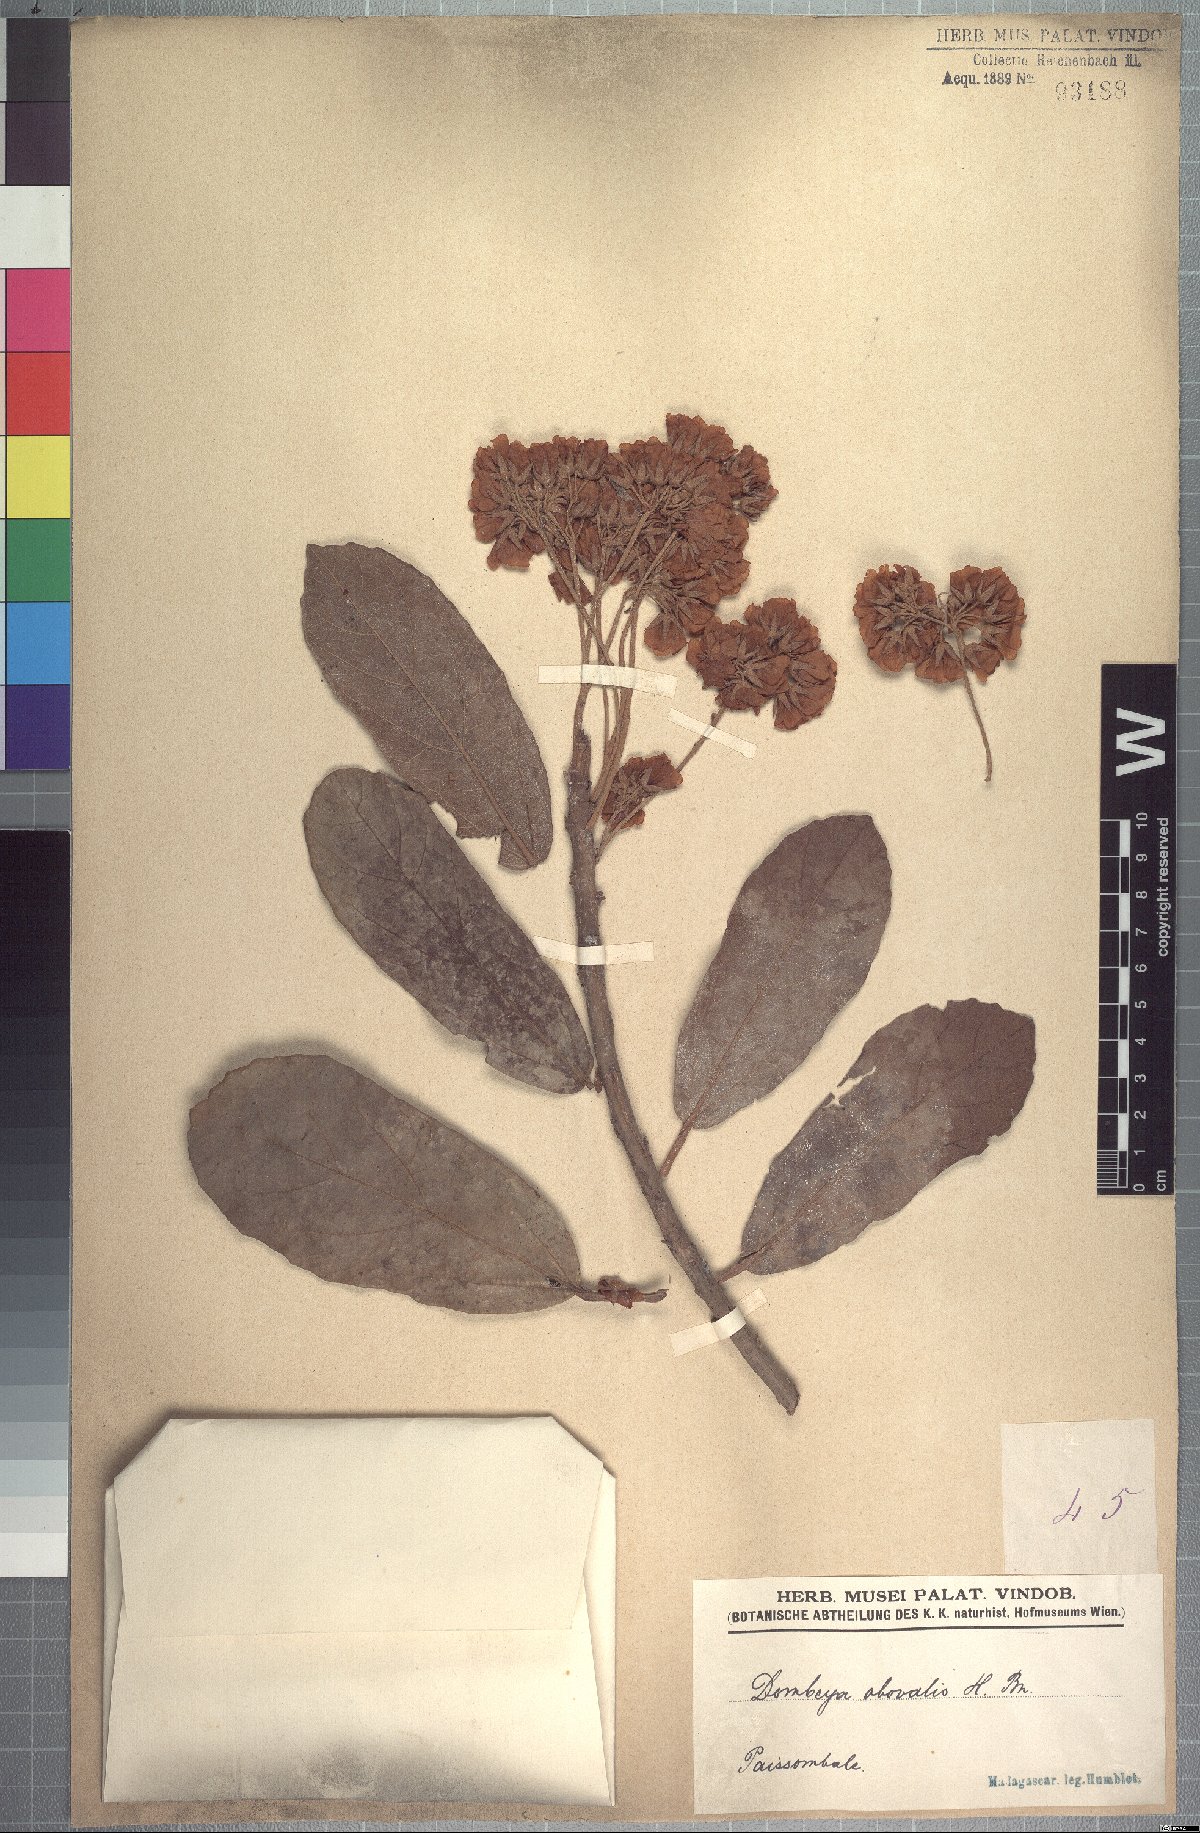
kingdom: Plantae
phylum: Tracheophyta
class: Magnoliopsida
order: Malvales
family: Malvaceae
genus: Dombeya
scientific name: Dombeya obovalis
